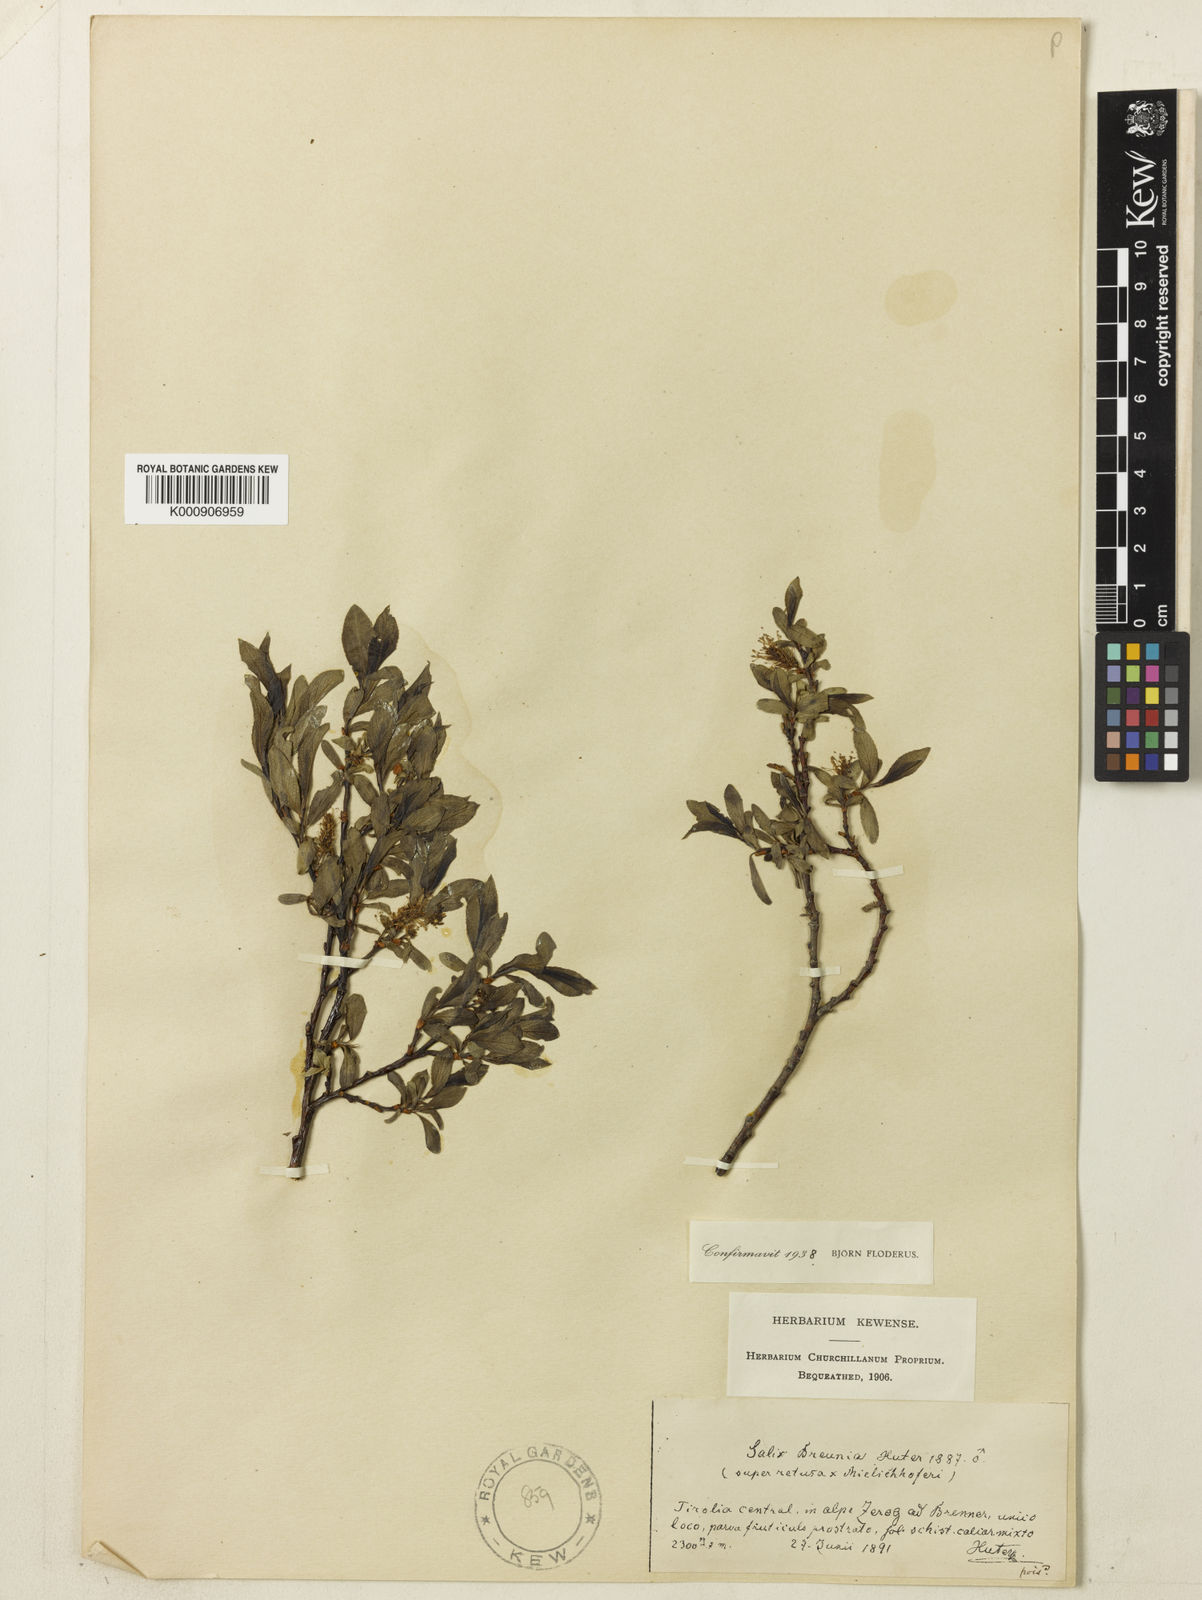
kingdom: Plantae
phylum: Tracheophyta
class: Magnoliopsida
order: Malpighiales
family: Salicaceae
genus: Salix
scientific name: Salix mielichhoferi
